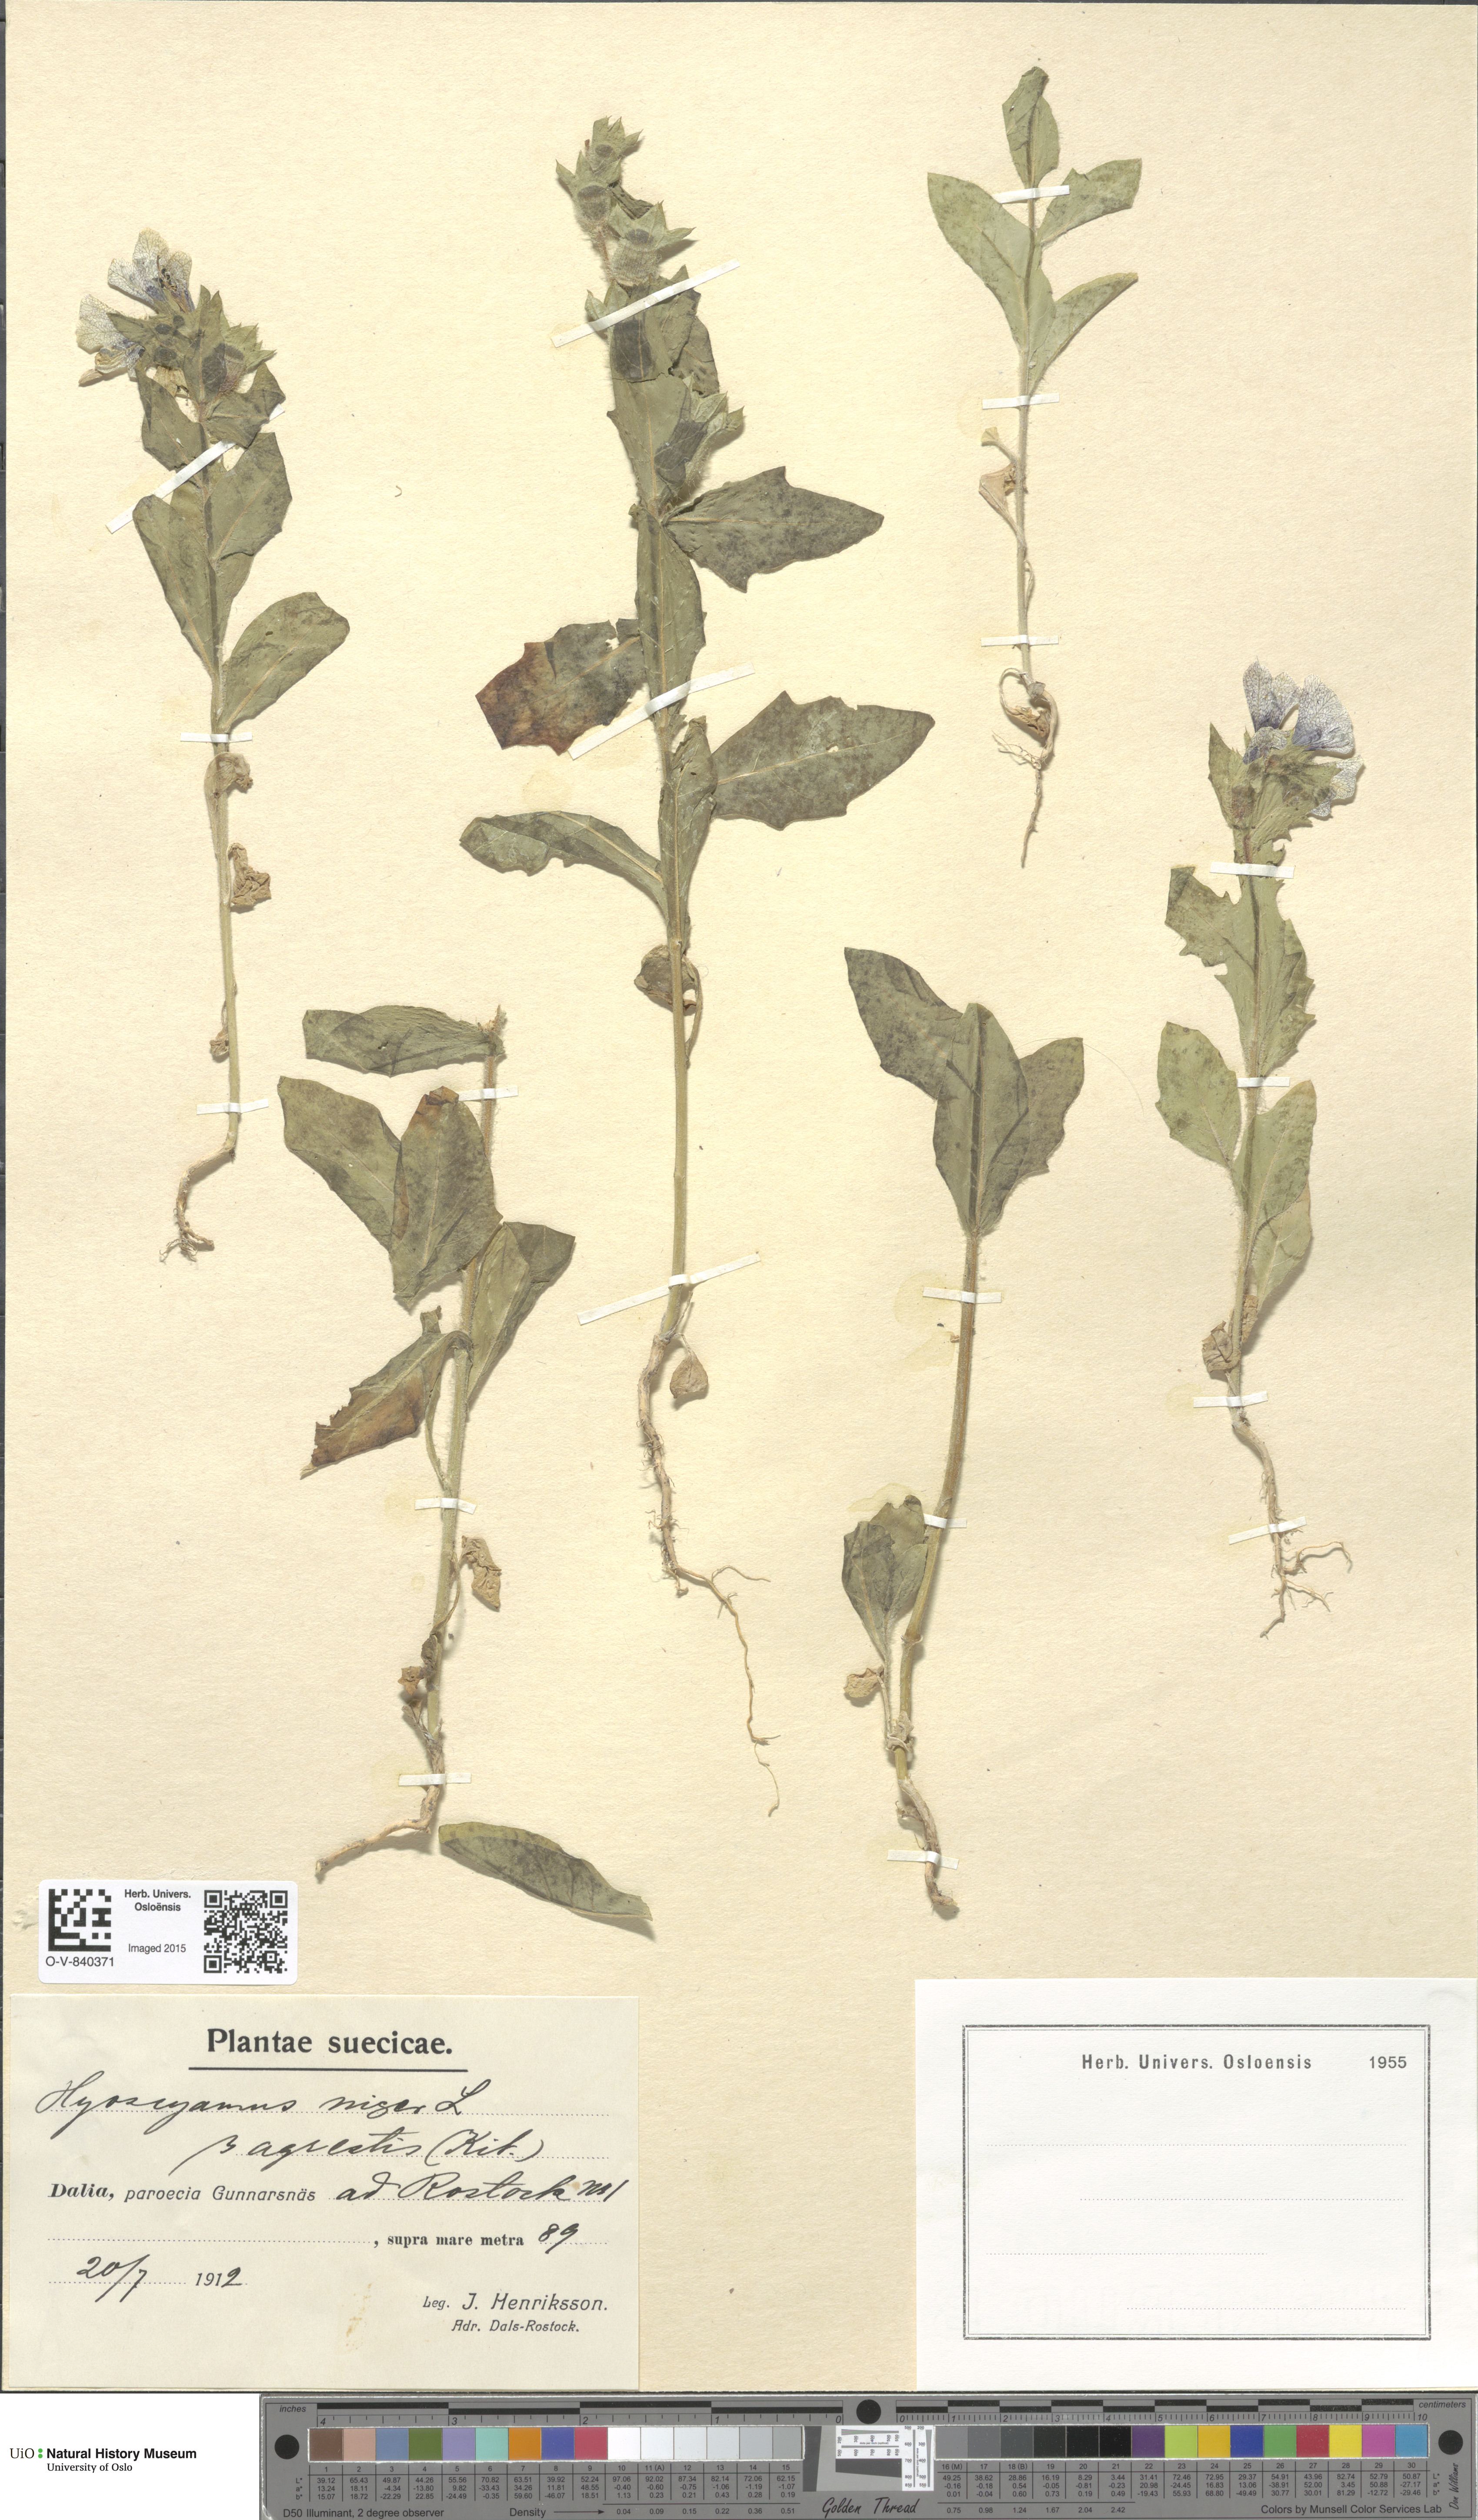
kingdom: Plantae
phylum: Tracheophyta
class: Magnoliopsida
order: Solanales
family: Solanaceae
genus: Hyoscyamus
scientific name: Hyoscyamus niger
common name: Henbane
